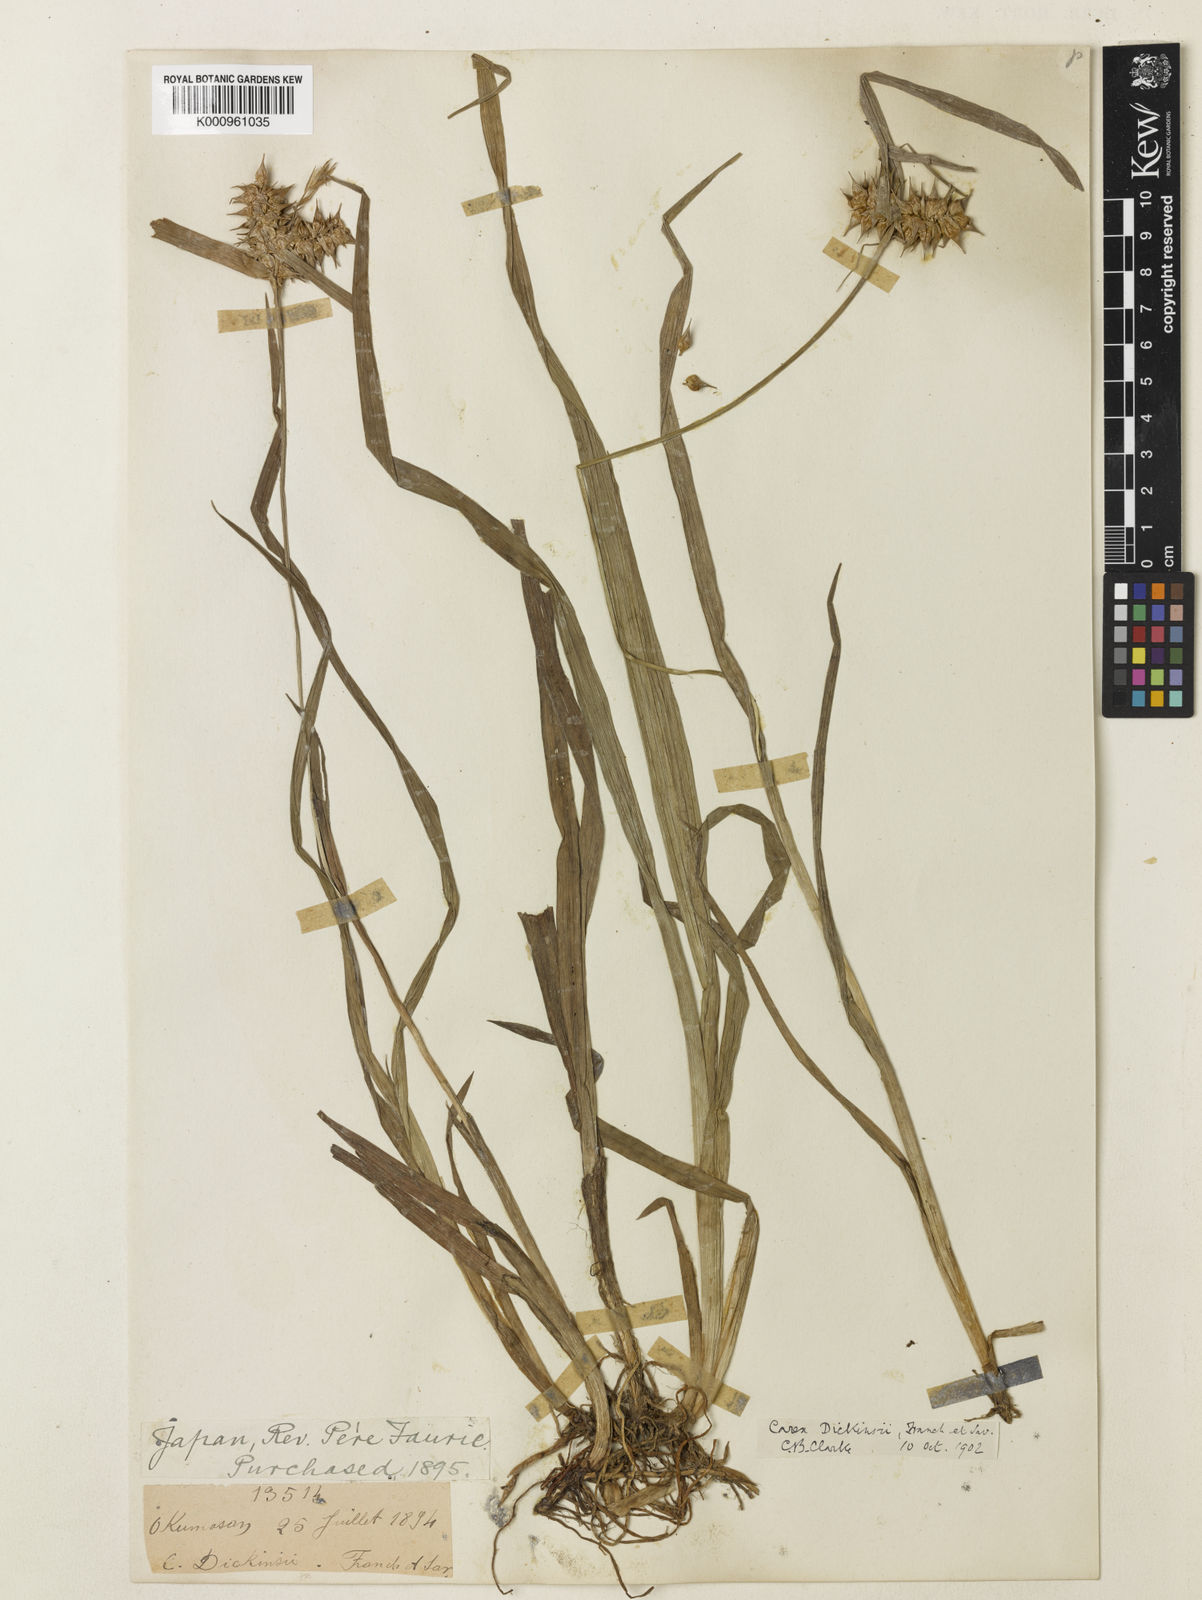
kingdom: Plantae
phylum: Tracheophyta
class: Liliopsida
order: Poales
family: Cyperaceae
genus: Carex
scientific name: Carex dickinsii
